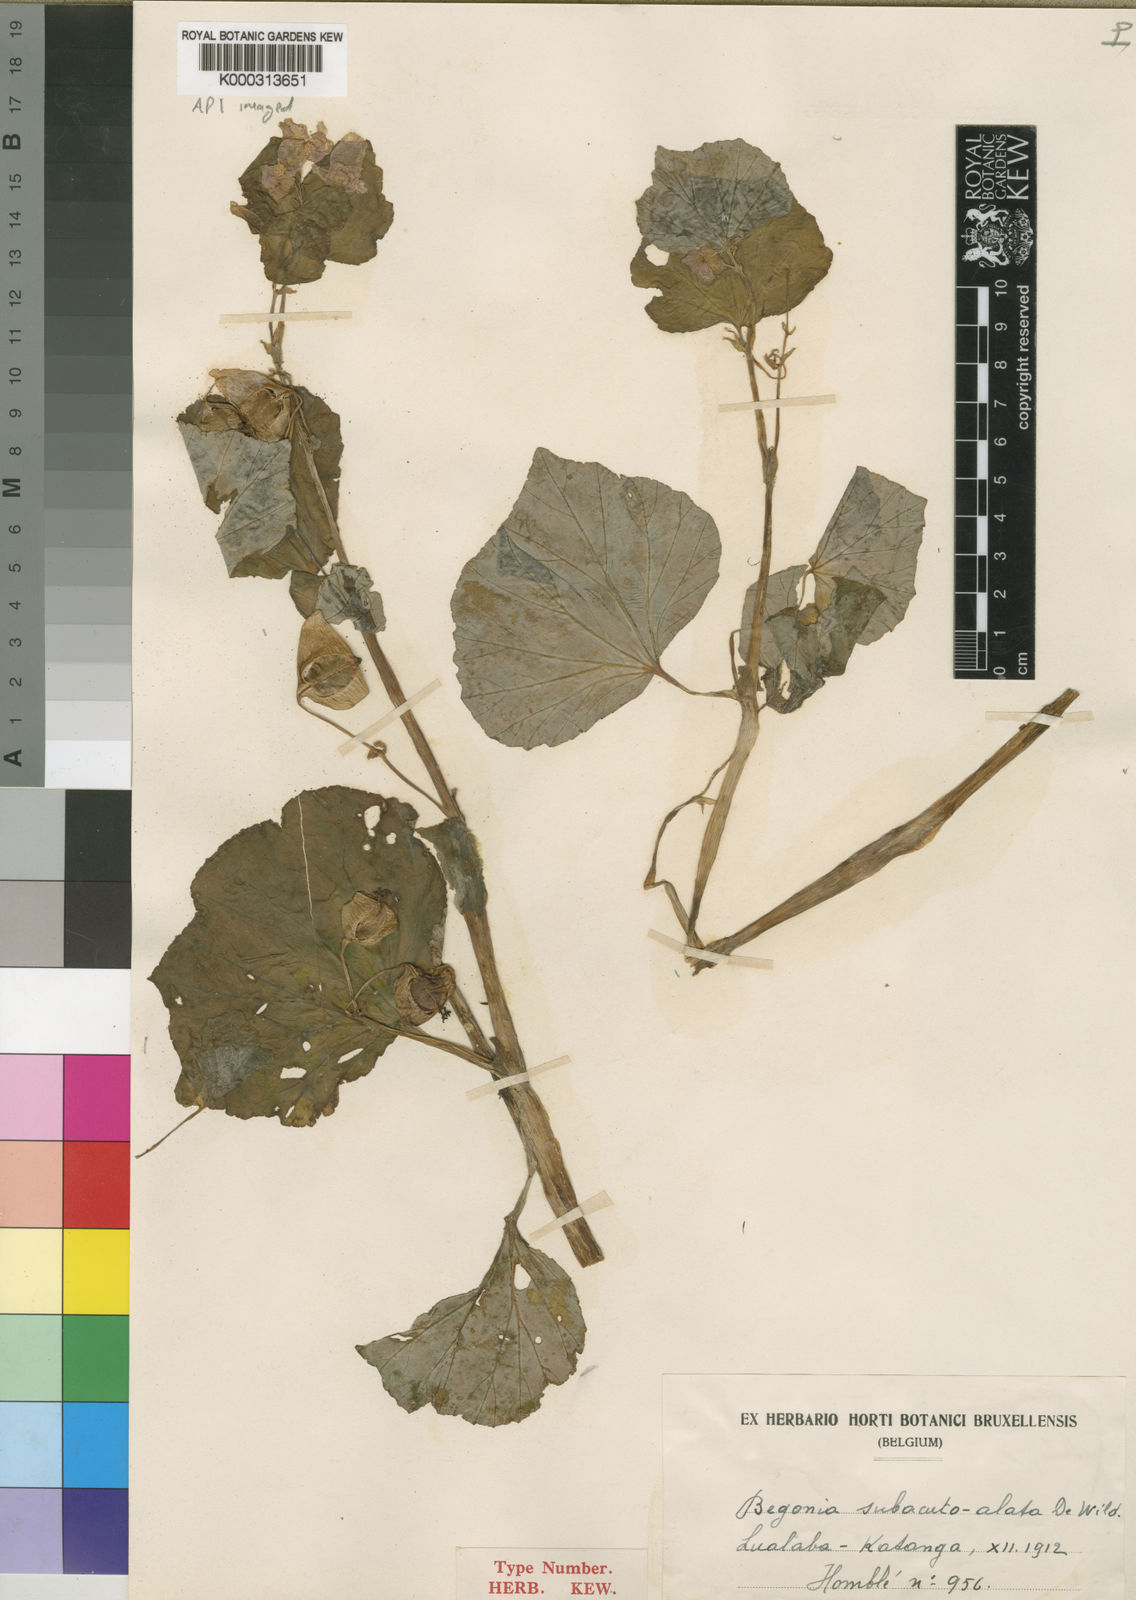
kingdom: Plantae
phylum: Tracheophyta
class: Magnoliopsida
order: Cucurbitales
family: Begoniaceae
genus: Begonia
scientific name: Begonia princeae
